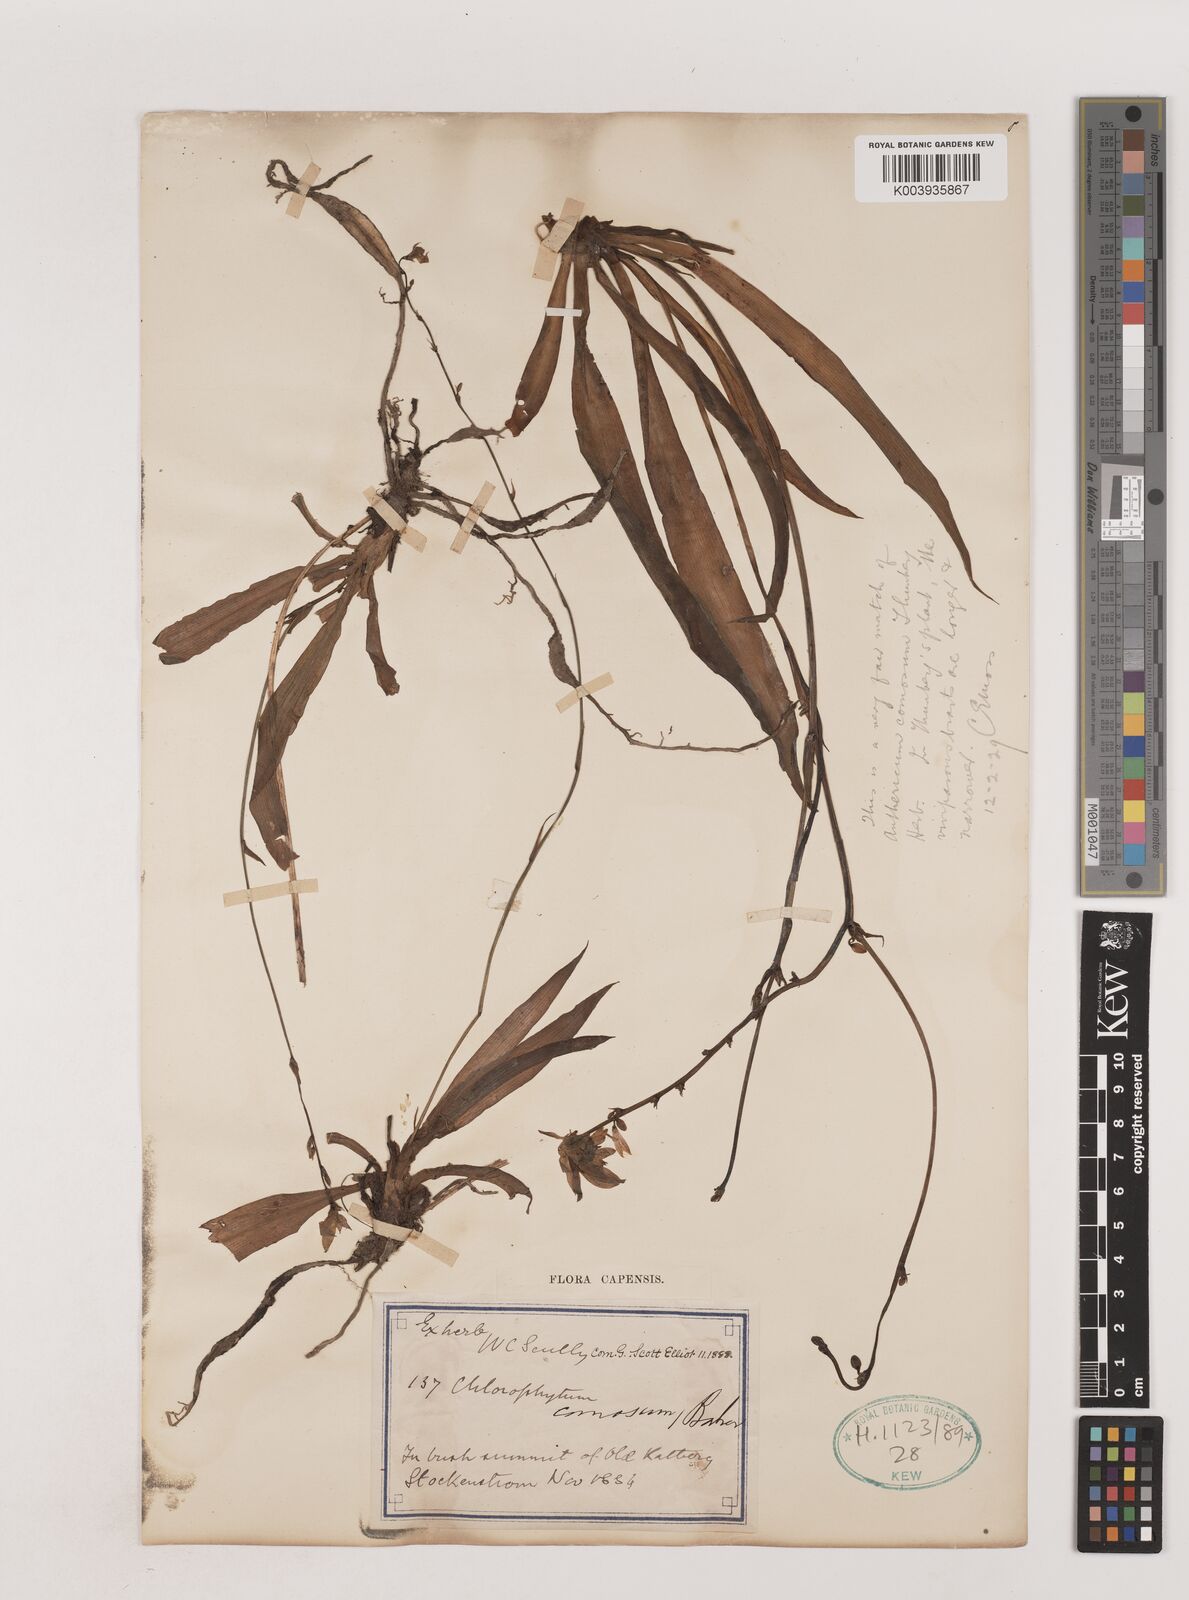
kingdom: Plantae
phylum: Tracheophyta
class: Liliopsida
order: Asparagales
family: Asparagaceae
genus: Chlorophytum
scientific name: Chlorophytum comosum
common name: Spider plant
